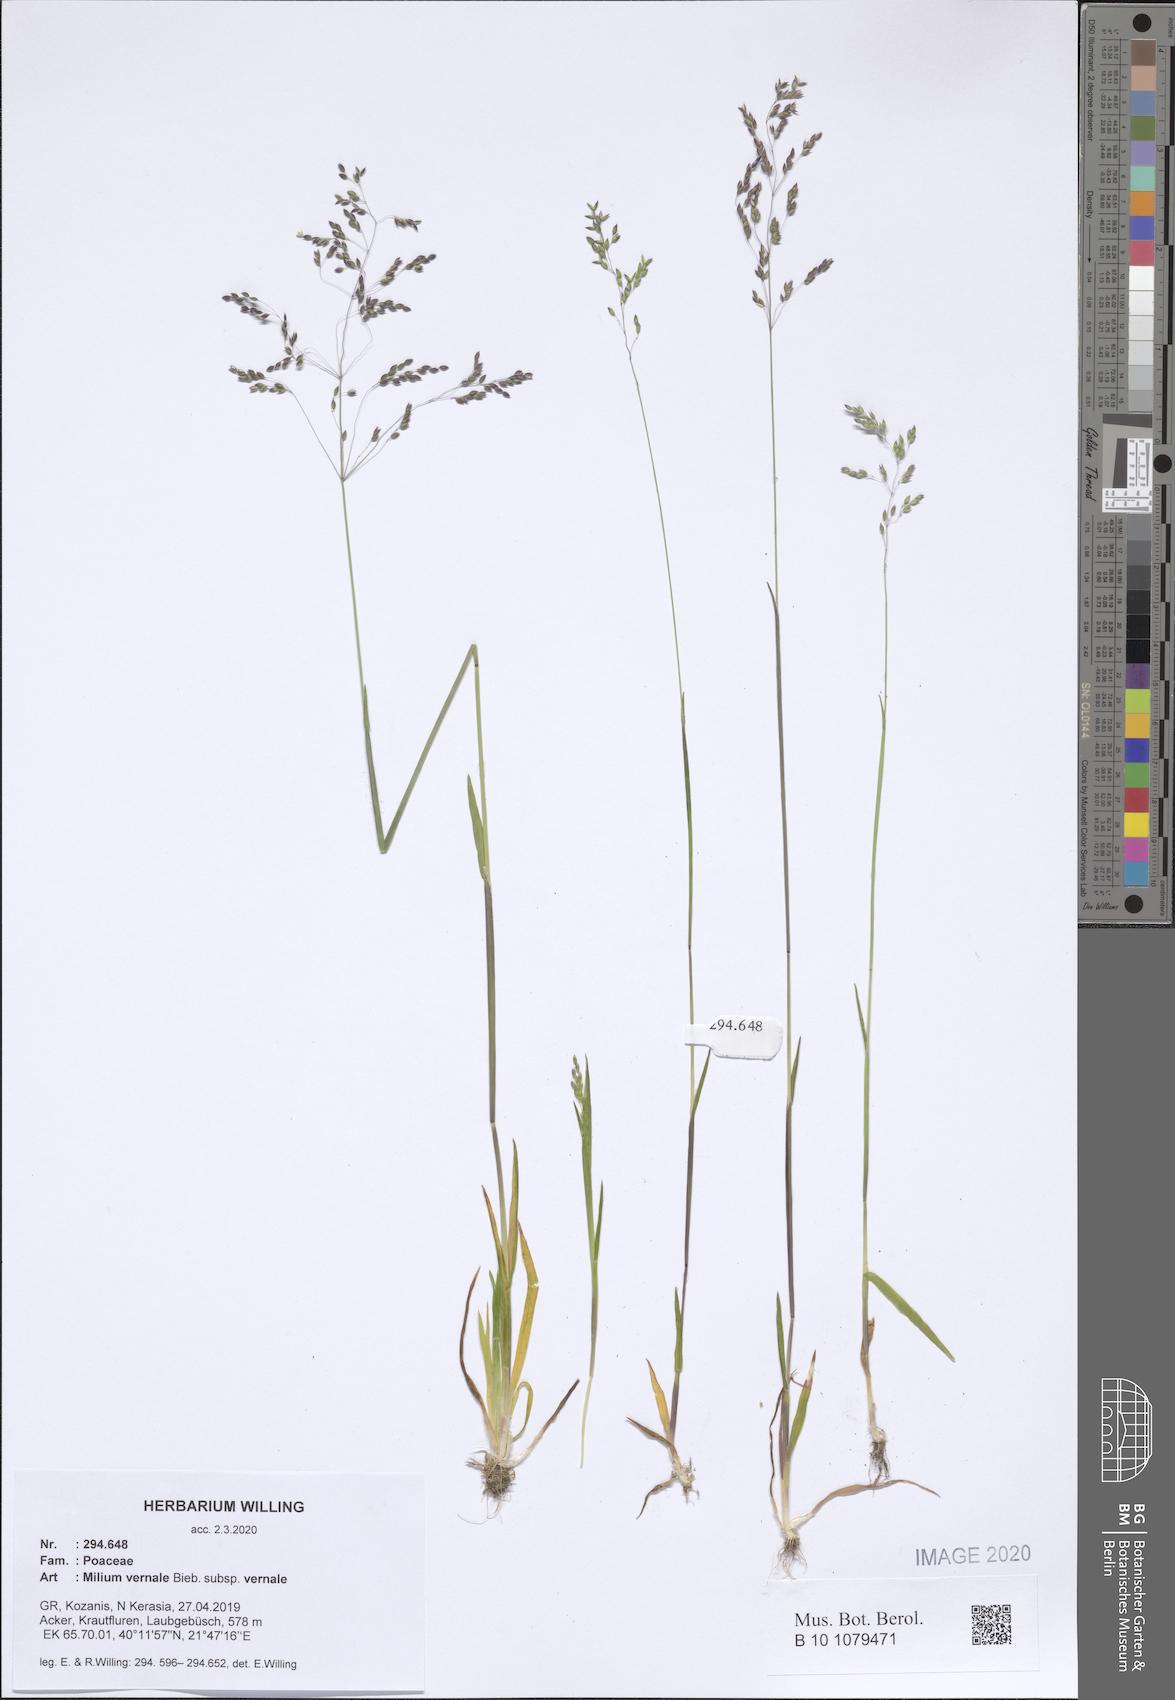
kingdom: Plantae
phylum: Tracheophyta
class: Liliopsida
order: Poales
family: Poaceae
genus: Milium
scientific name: Milium vernale
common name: Early millet
